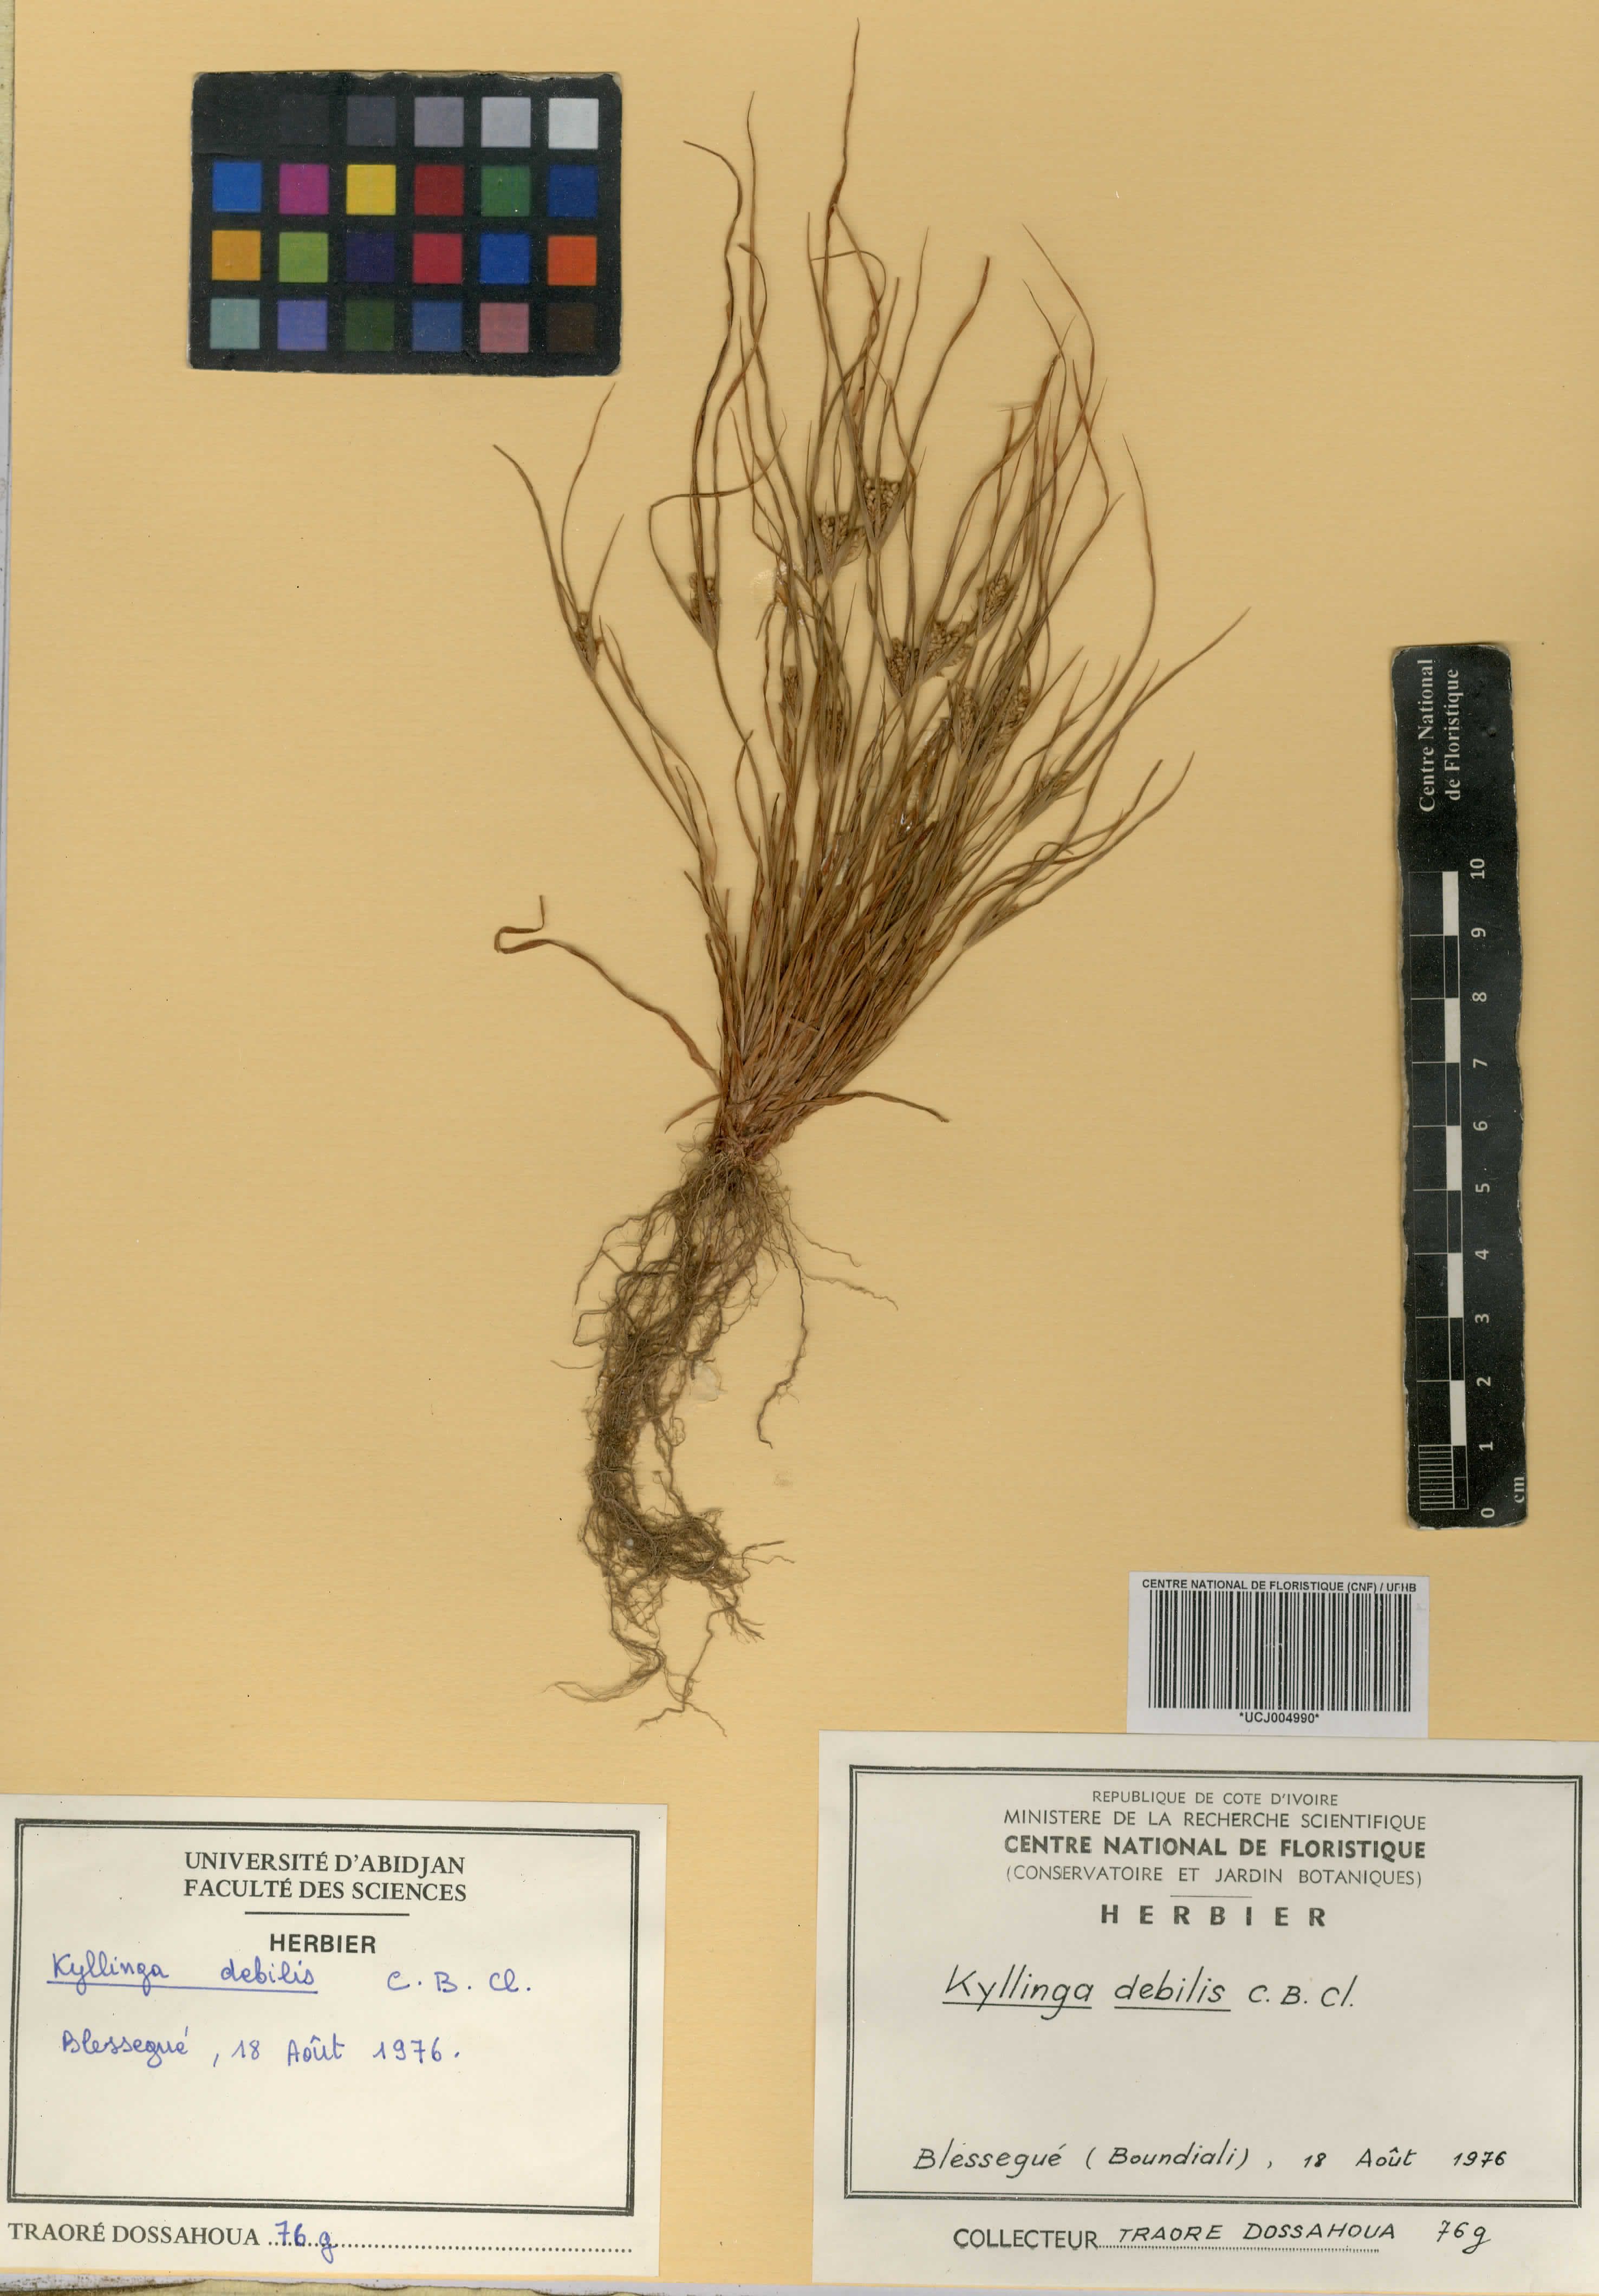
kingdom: Plantae
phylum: Tracheophyta
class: Liliopsida
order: Poales
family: Cyperaceae
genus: Cyperus
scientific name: Cyperus leptorhachis
